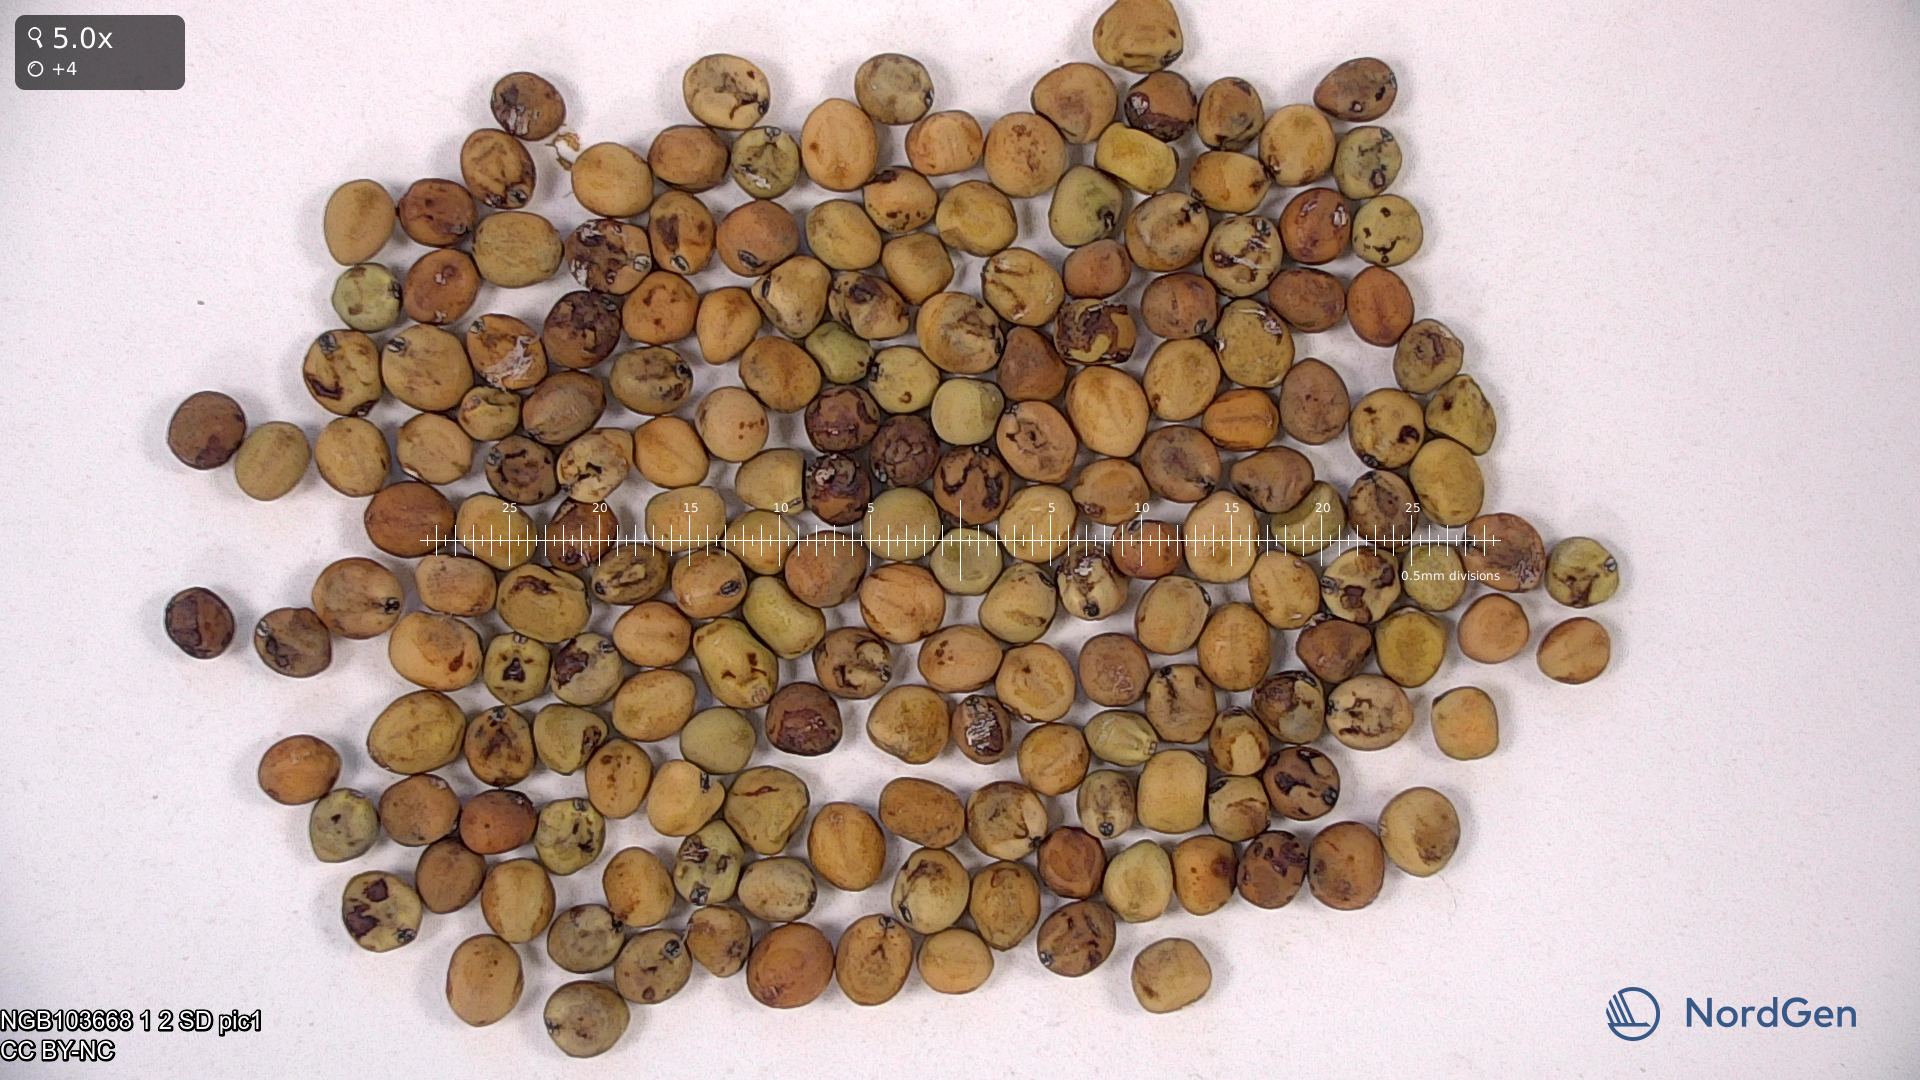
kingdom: Plantae
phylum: Tracheophyta
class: Magnoliopsida
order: Fabales
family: Fabaceae
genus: Lathyrus
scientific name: Lathyrus oleraceus
